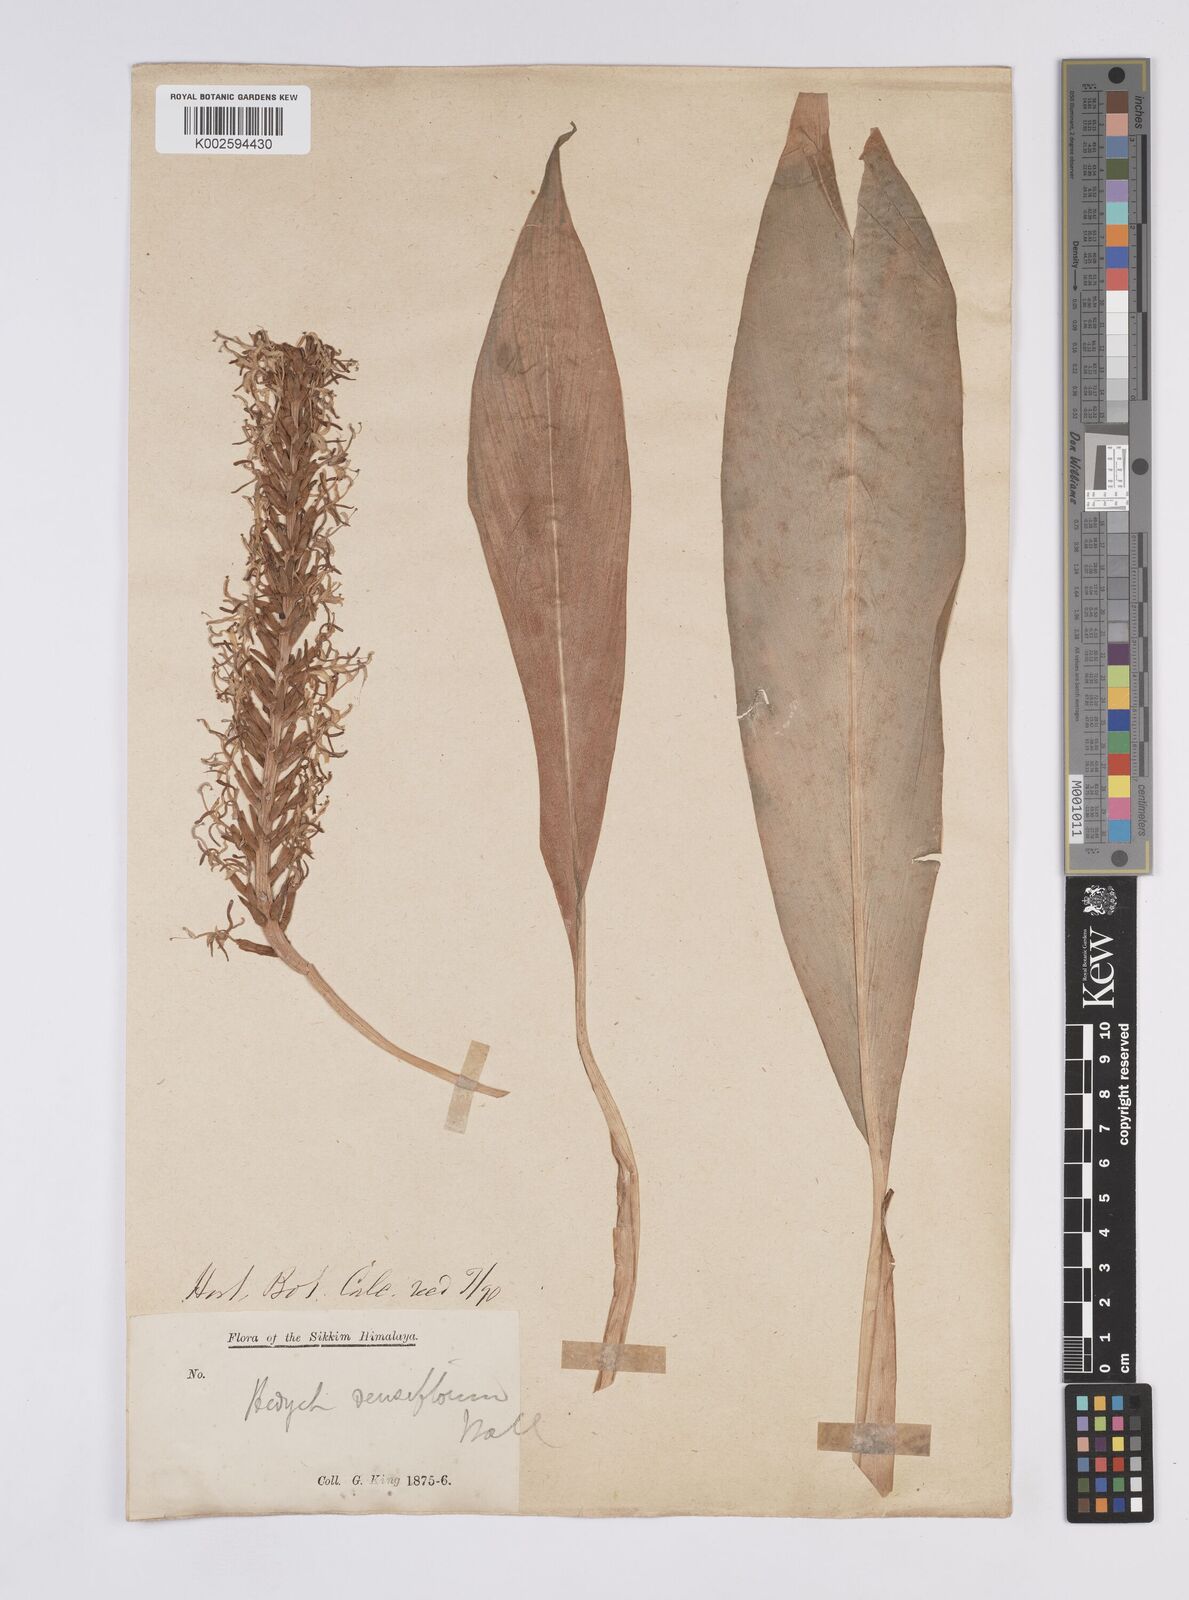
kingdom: Plantae
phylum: Tracheophyta
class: Liliopsida
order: Zingiberales
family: Zingiberaceae
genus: Hedychium
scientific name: Hedychium densiflorum
